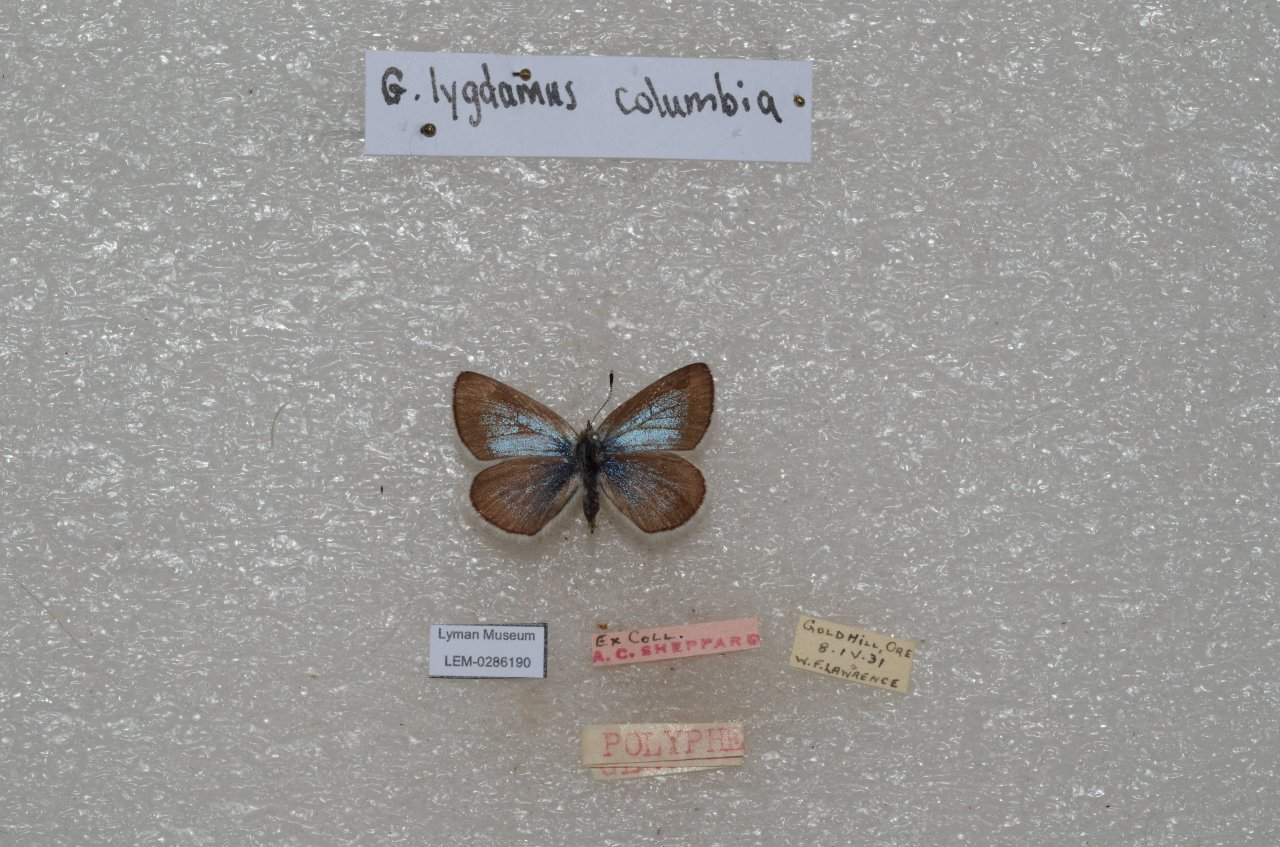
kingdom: Animalia
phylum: Arthropoda
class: Insecta
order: Lepidoptera
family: Lycaenidae
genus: Glaucopsyche
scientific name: Glaucopsyche lygdamus
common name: Silvery Blue
